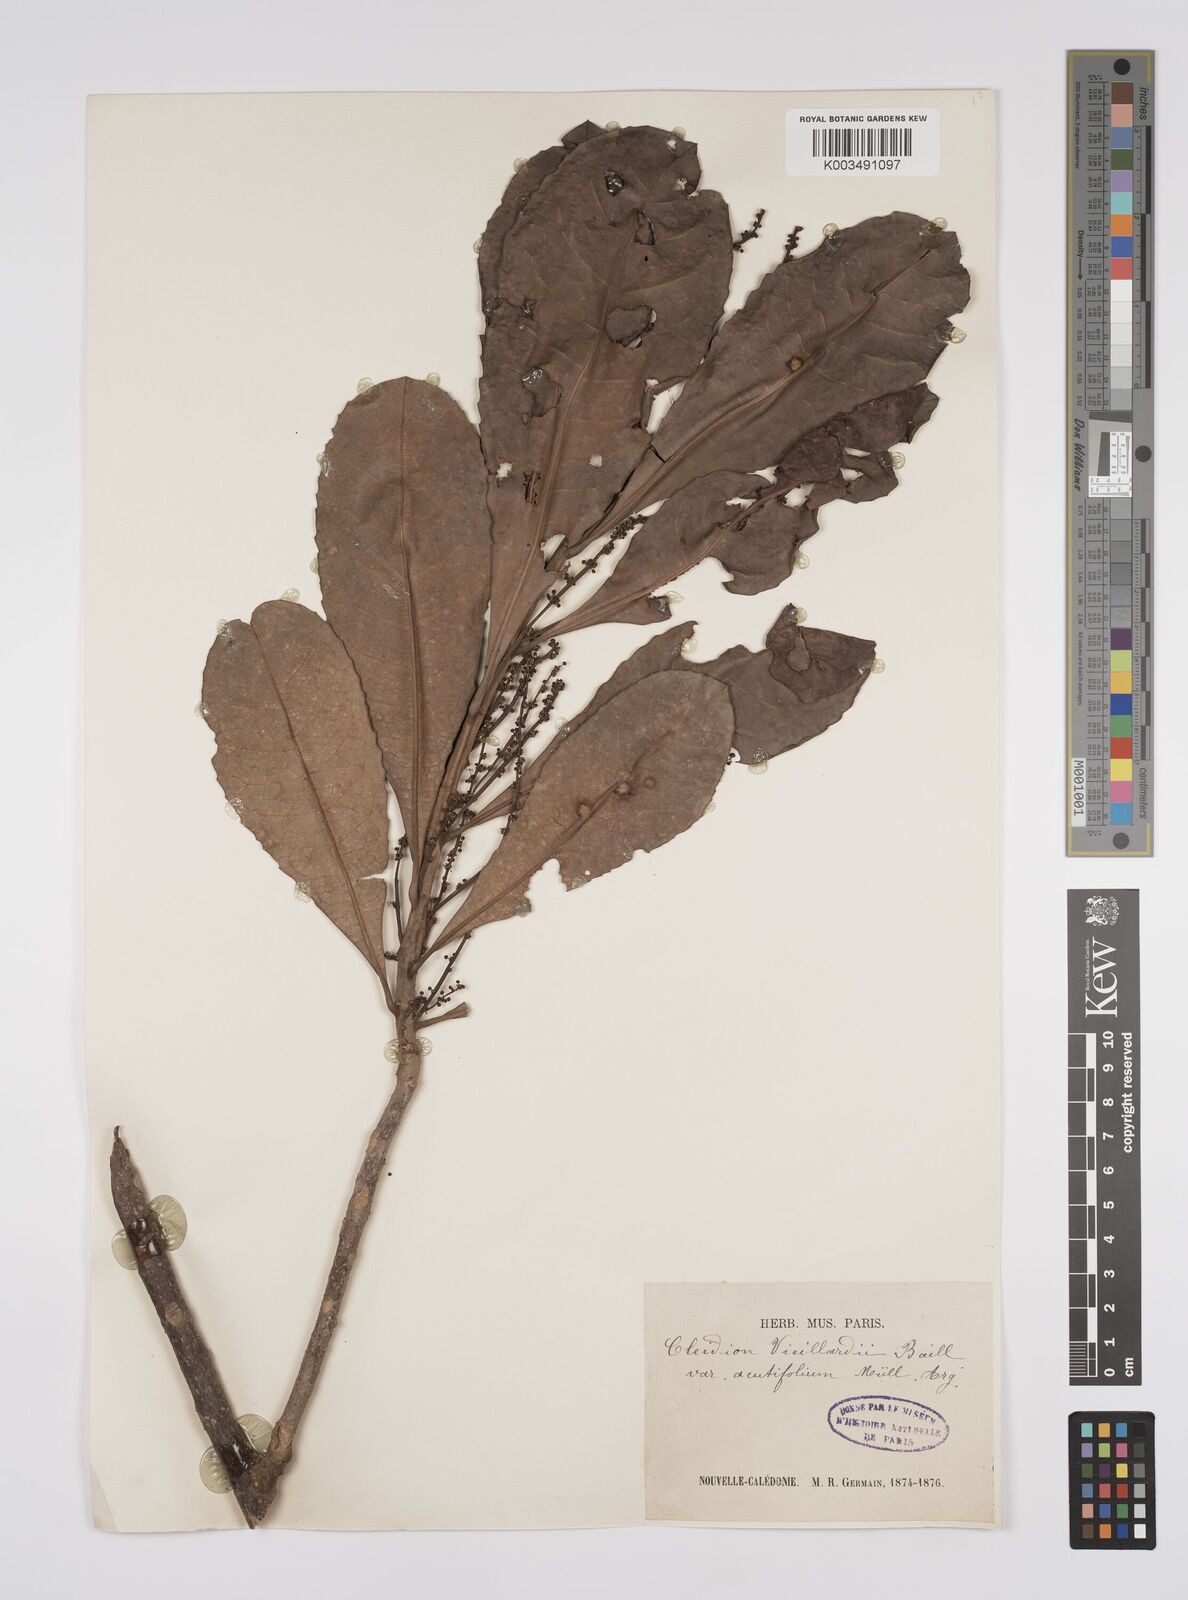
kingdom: Plantae
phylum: Tracheophyta
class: Magnoliopsida
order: Malpighiales
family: Euphorbiaceae
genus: Cleidion
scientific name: Cleidion vieillardii
